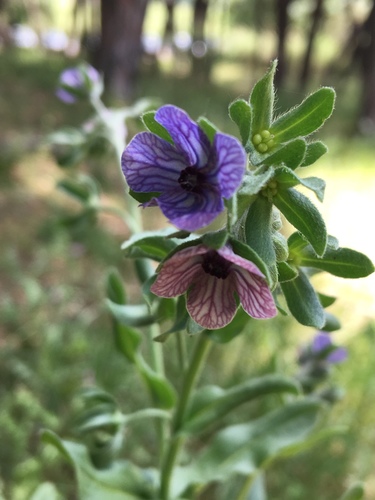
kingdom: Plantae
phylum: Tracheophyta
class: Magnoliopsida
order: Boraginales
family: Boraginaceae
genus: Cynoglossum
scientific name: Cynoglossum creticum
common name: Blue hound's tongue
